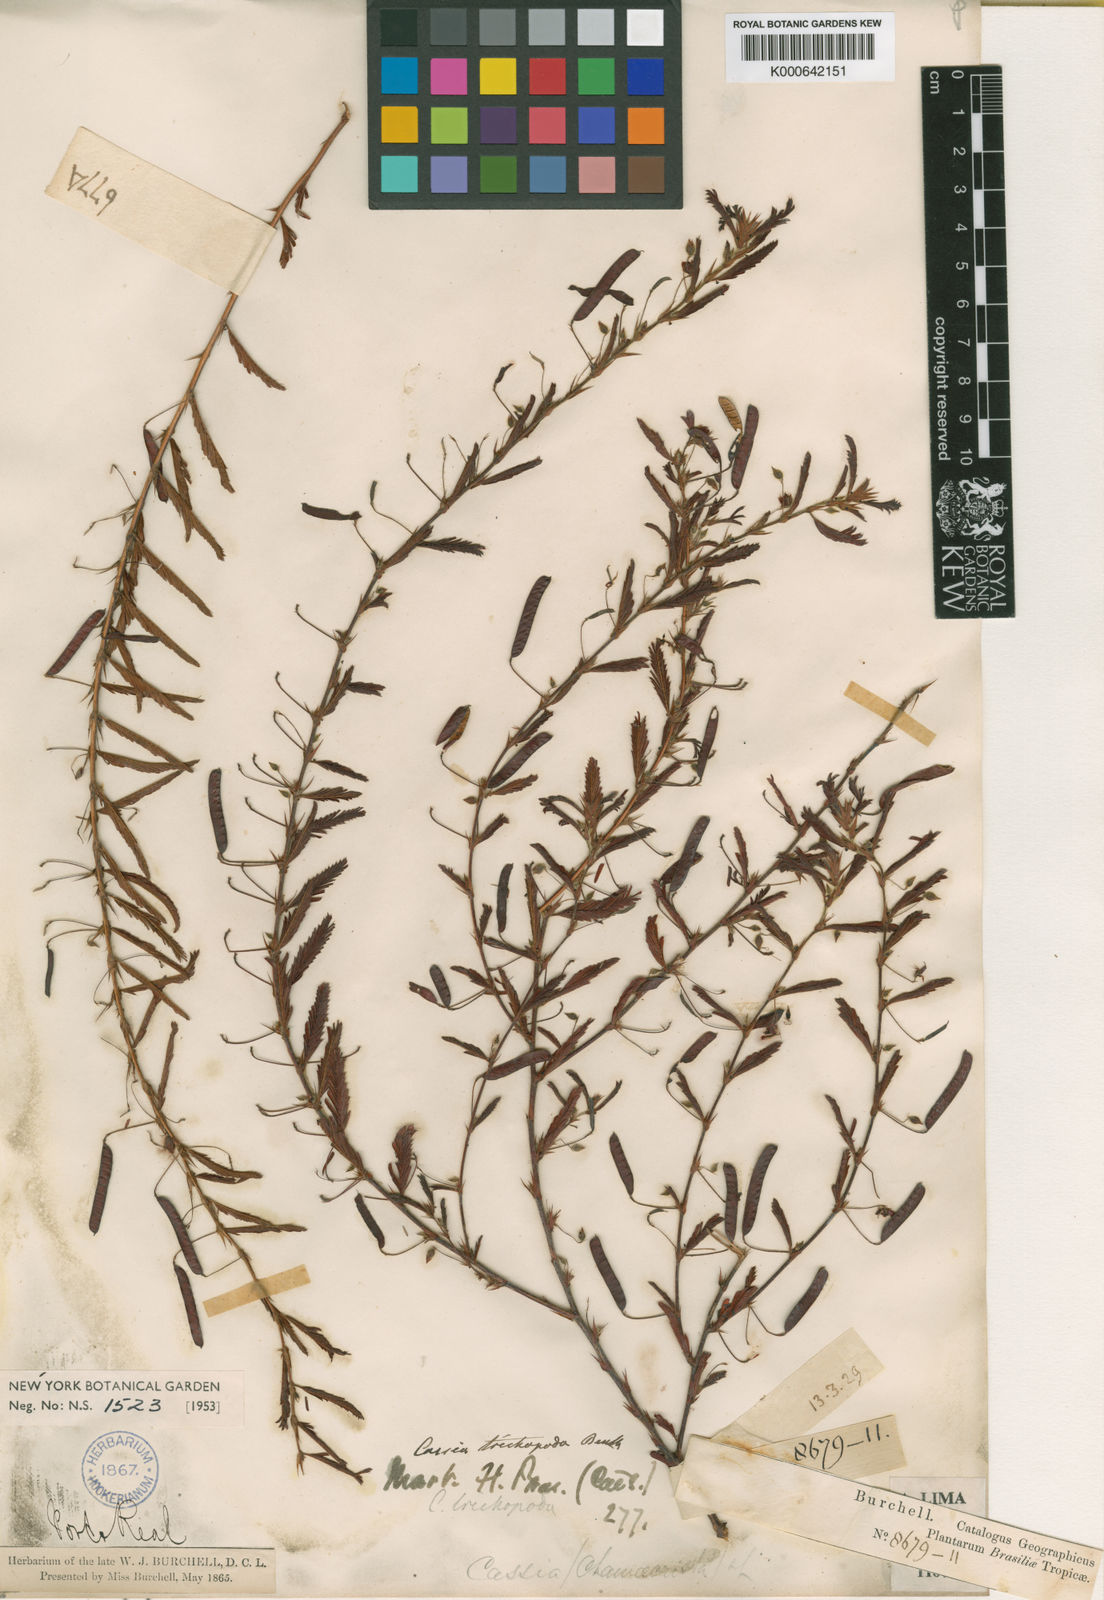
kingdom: Plantae
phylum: Tracheophyta
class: Magnoliopsida
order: Fabales
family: Fabaceae
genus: Chamaecrista
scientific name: Chamaecrista trichopoda
